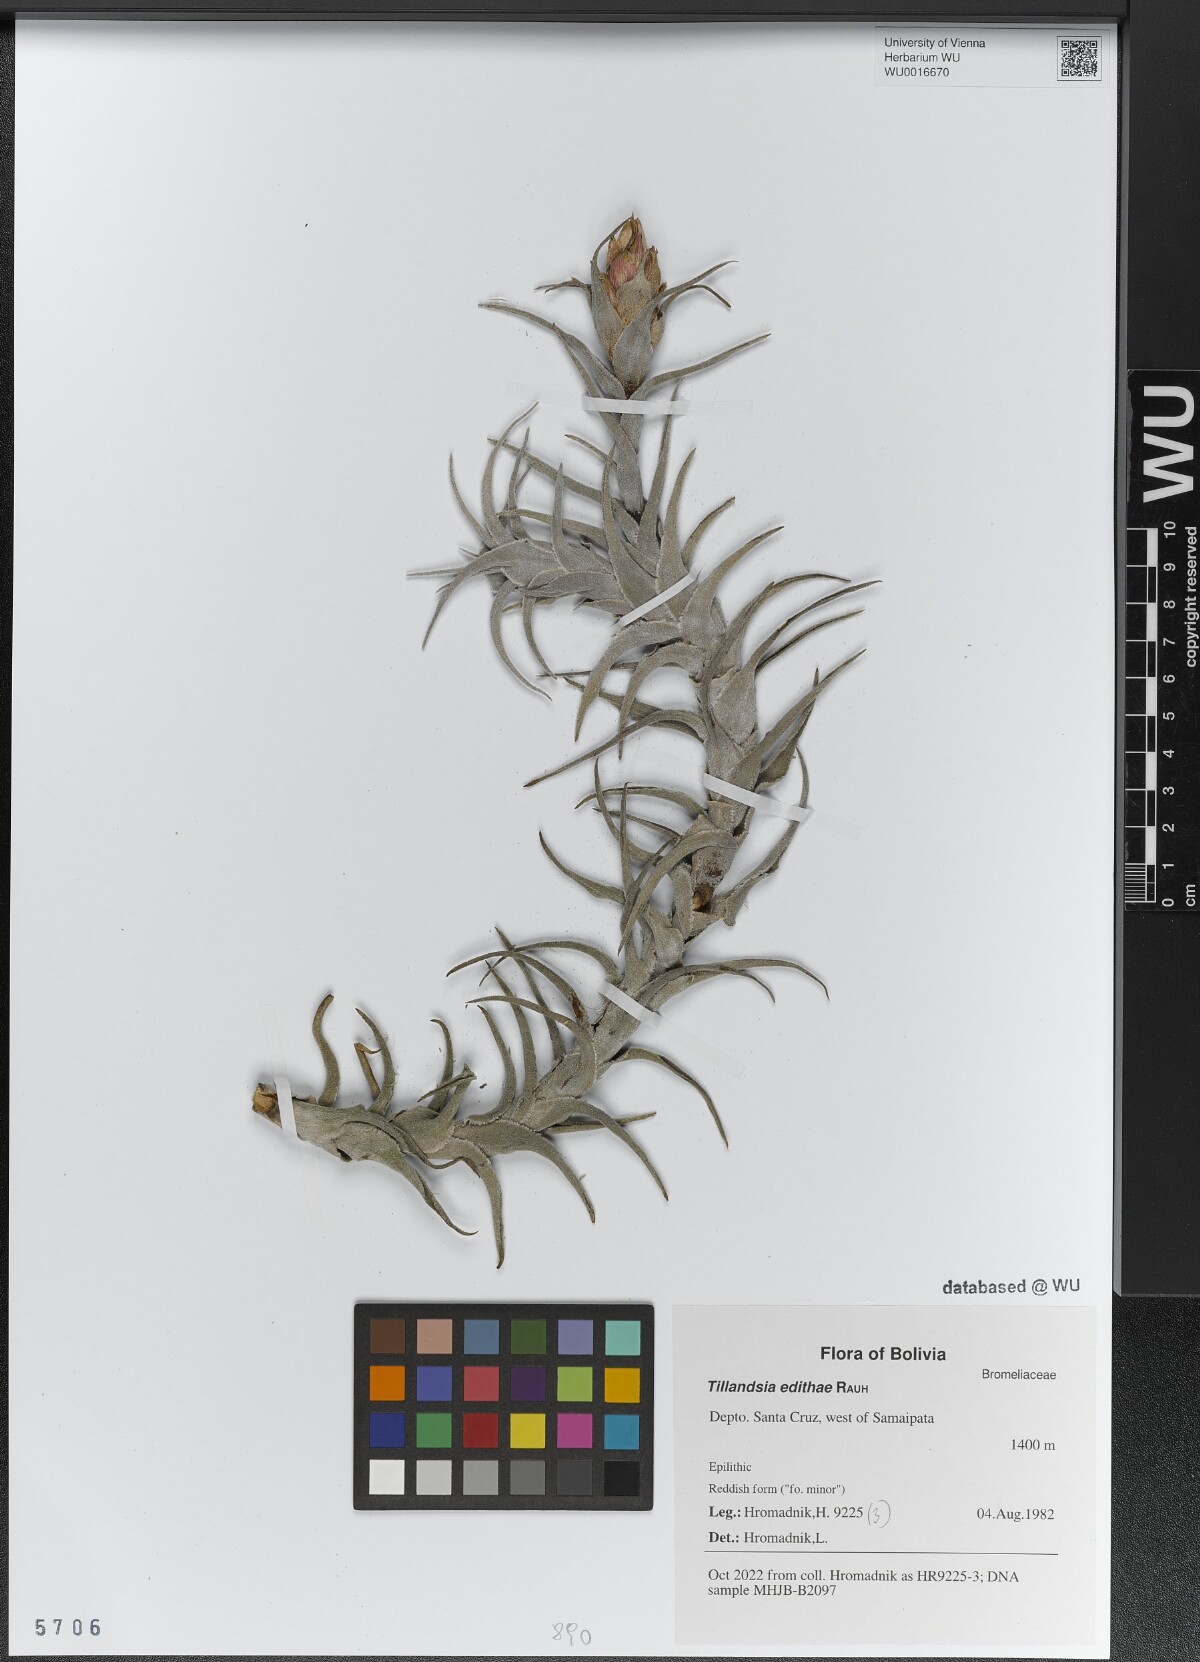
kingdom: Plantae
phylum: Tracheophyta
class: Liliopsida
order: Poales
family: Bromeliaceae
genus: Tillandsia
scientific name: Tillandsia edithae
